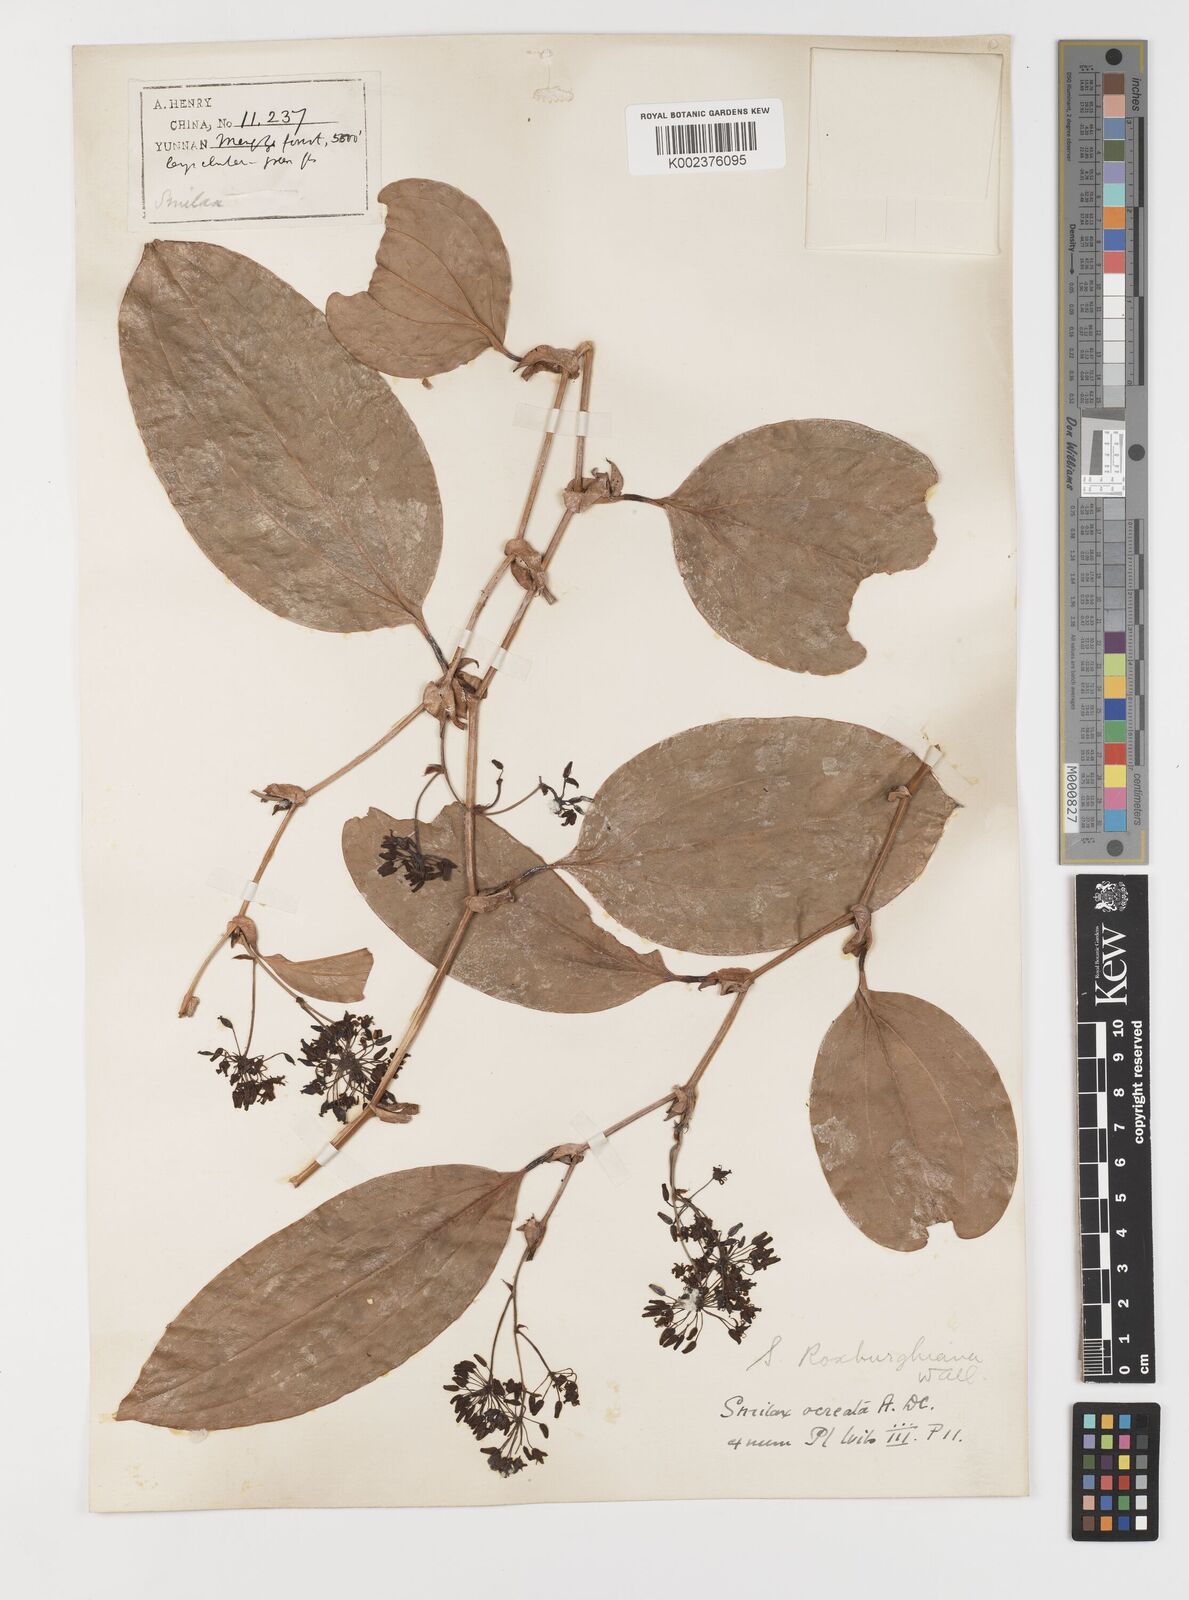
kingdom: Plantae
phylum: Tracheophyta
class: Liliopsida
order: Liliales
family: Smilacaceae
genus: Smilax
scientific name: Smilax
